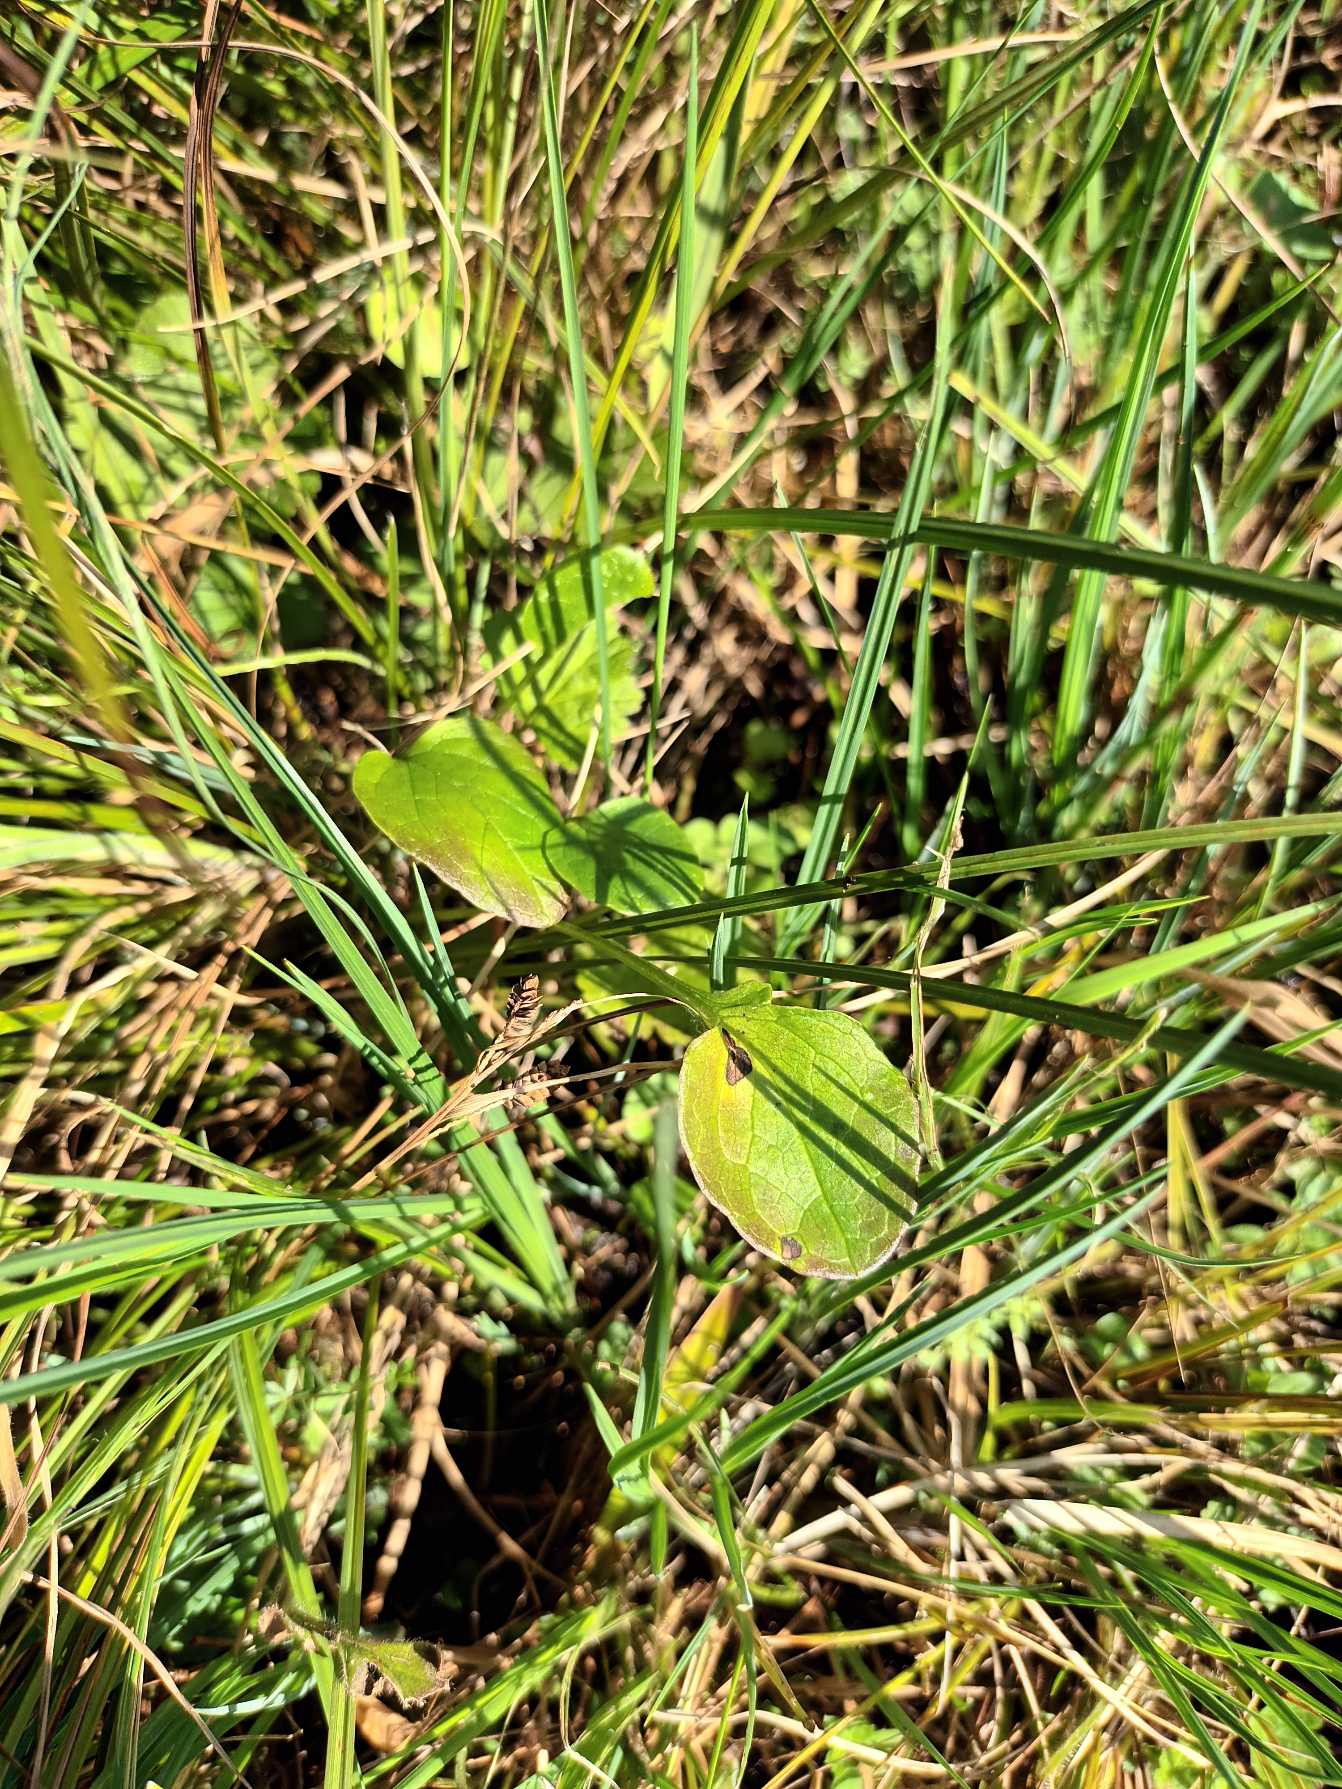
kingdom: Plantae
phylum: Tracheophyta
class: Magnoliopsida
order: Celastrales
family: Parnassiaceae
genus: Parnassia
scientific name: Parnassia palustris
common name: Leverurt
